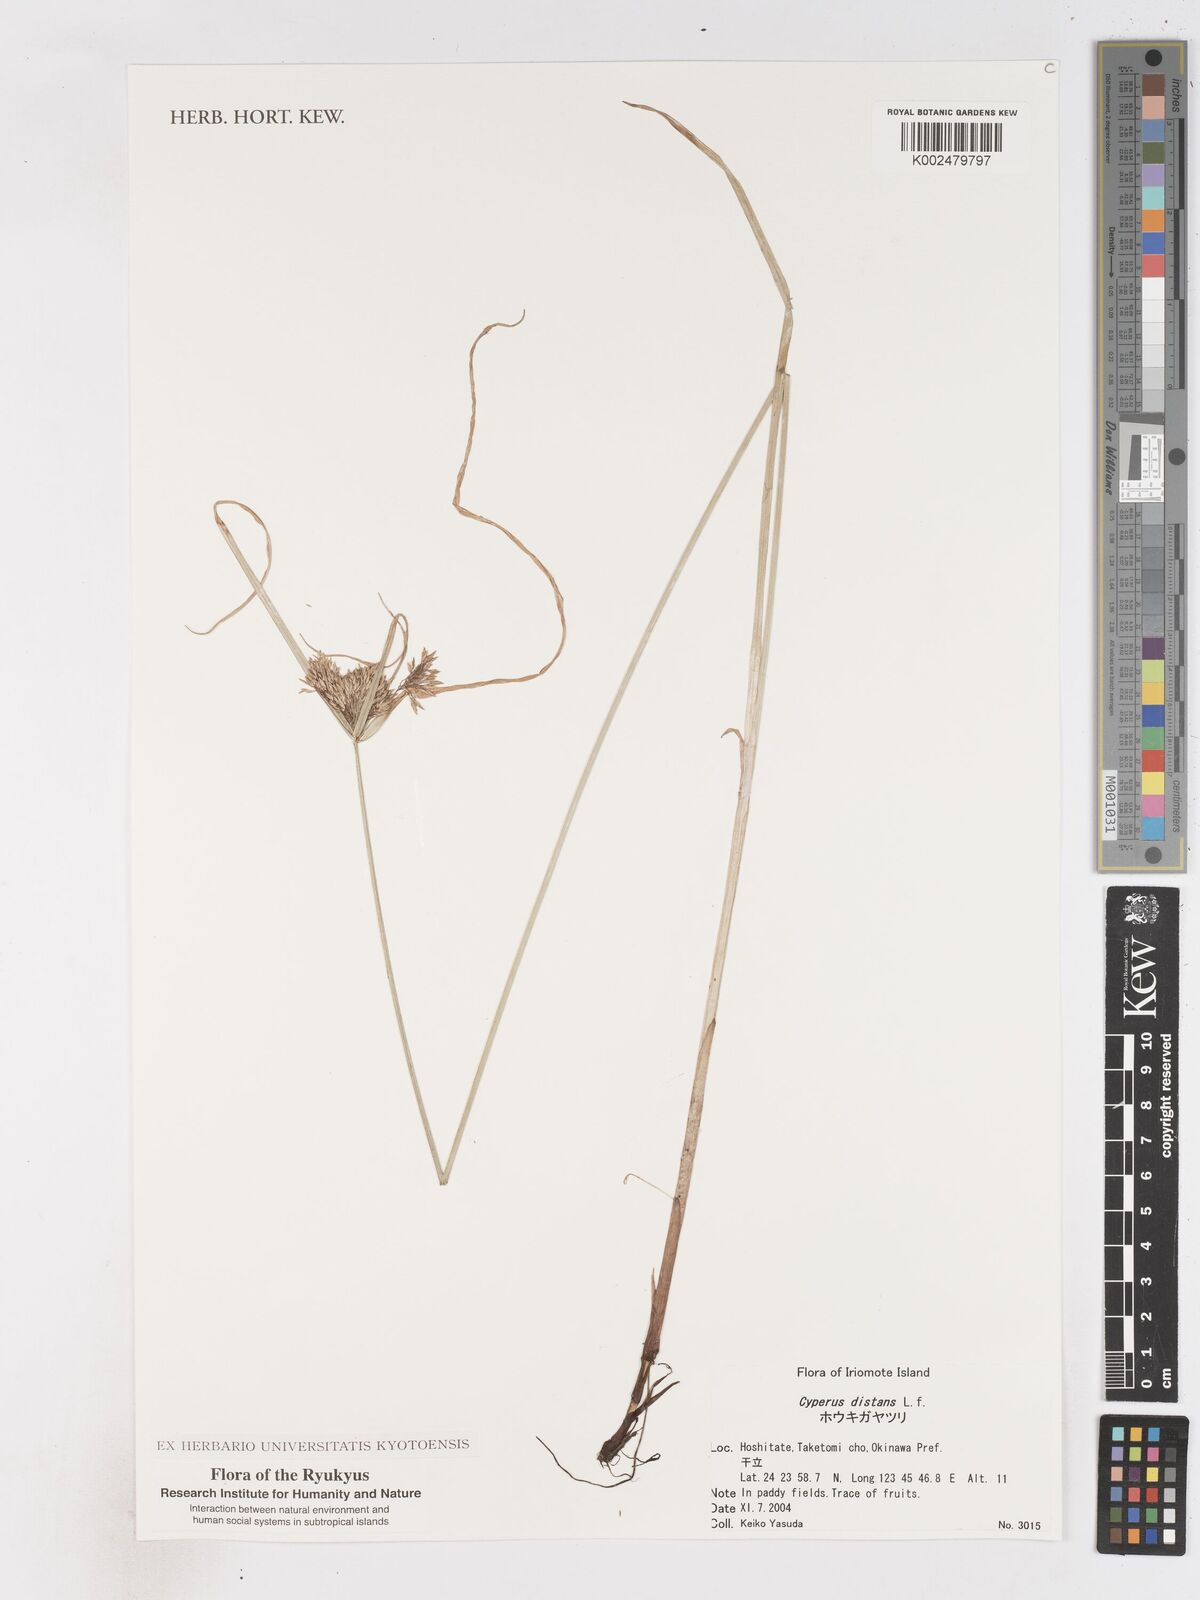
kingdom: Plantae
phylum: Tracheophyta
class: Liliopsida
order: Poales
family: Cyperaceae
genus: Cyperus
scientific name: Cyperus distans
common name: Slender cyperus
